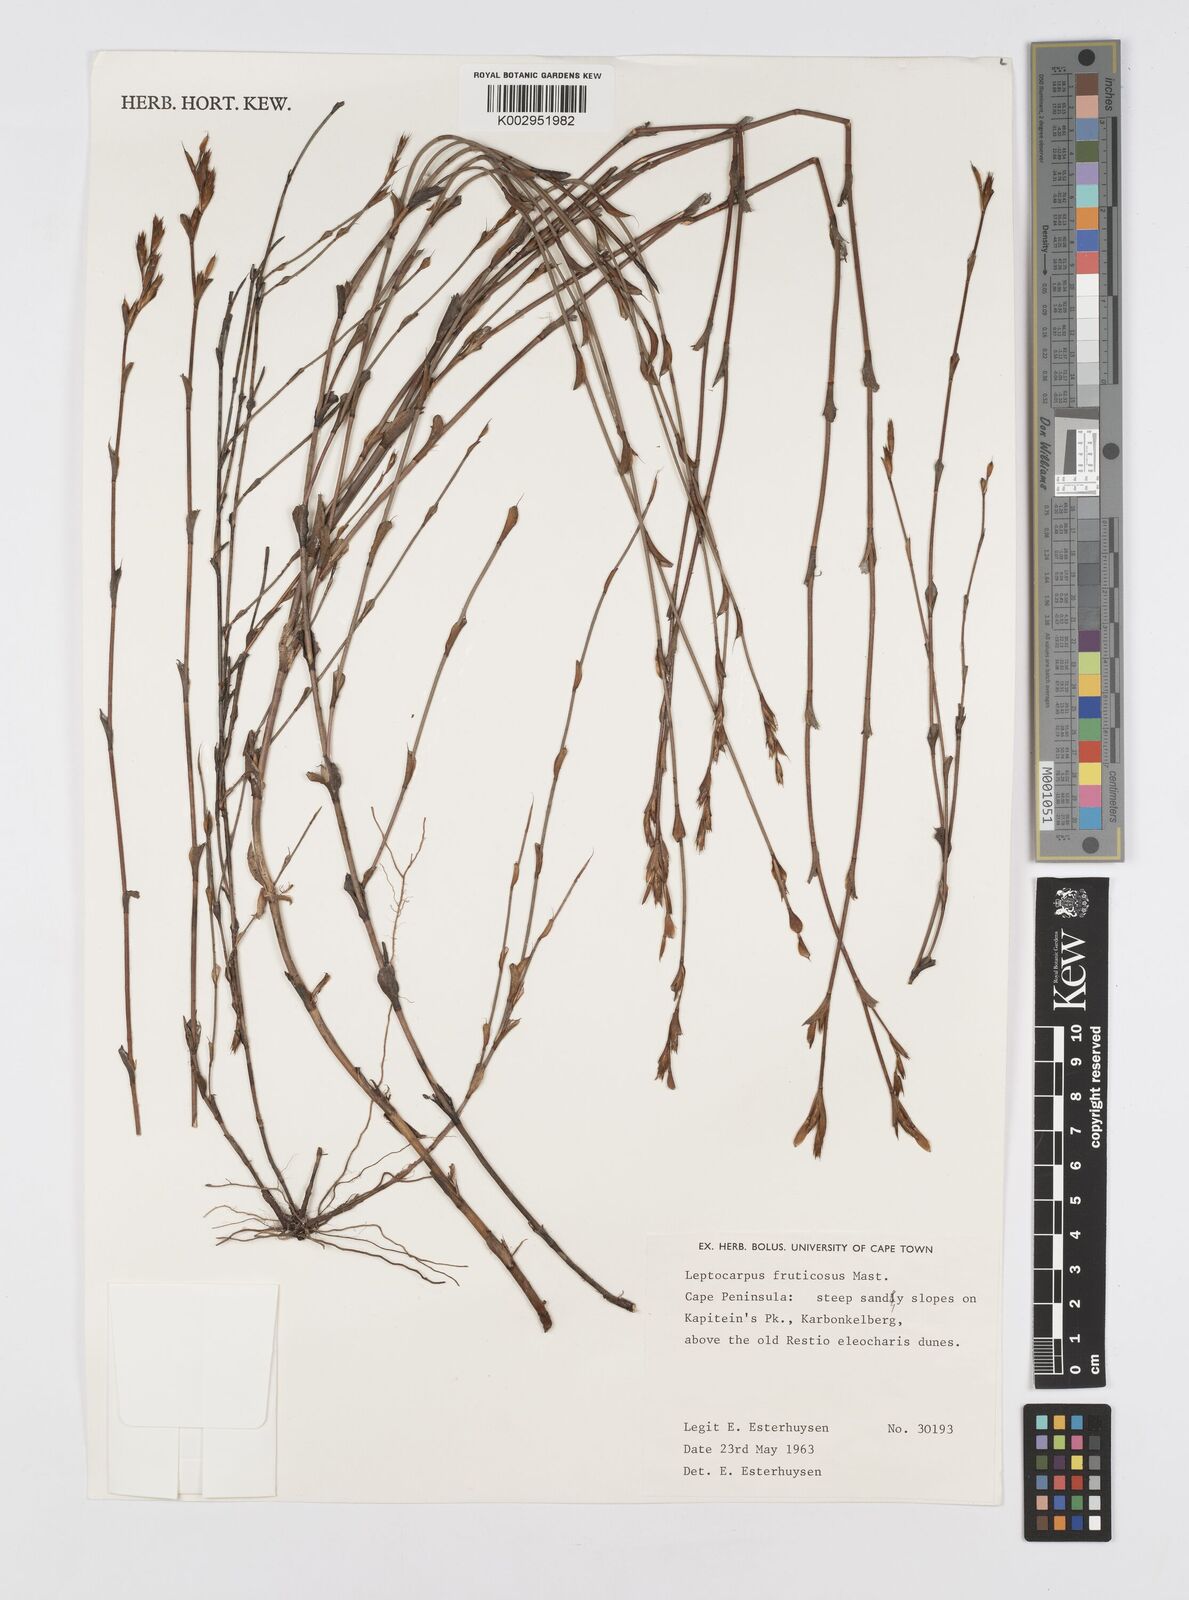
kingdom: Plantae
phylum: Tracheophyta
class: Liliopsida
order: Poales
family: Restionaceae
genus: Rhodocoma
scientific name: Rhodocoma fruticosa
